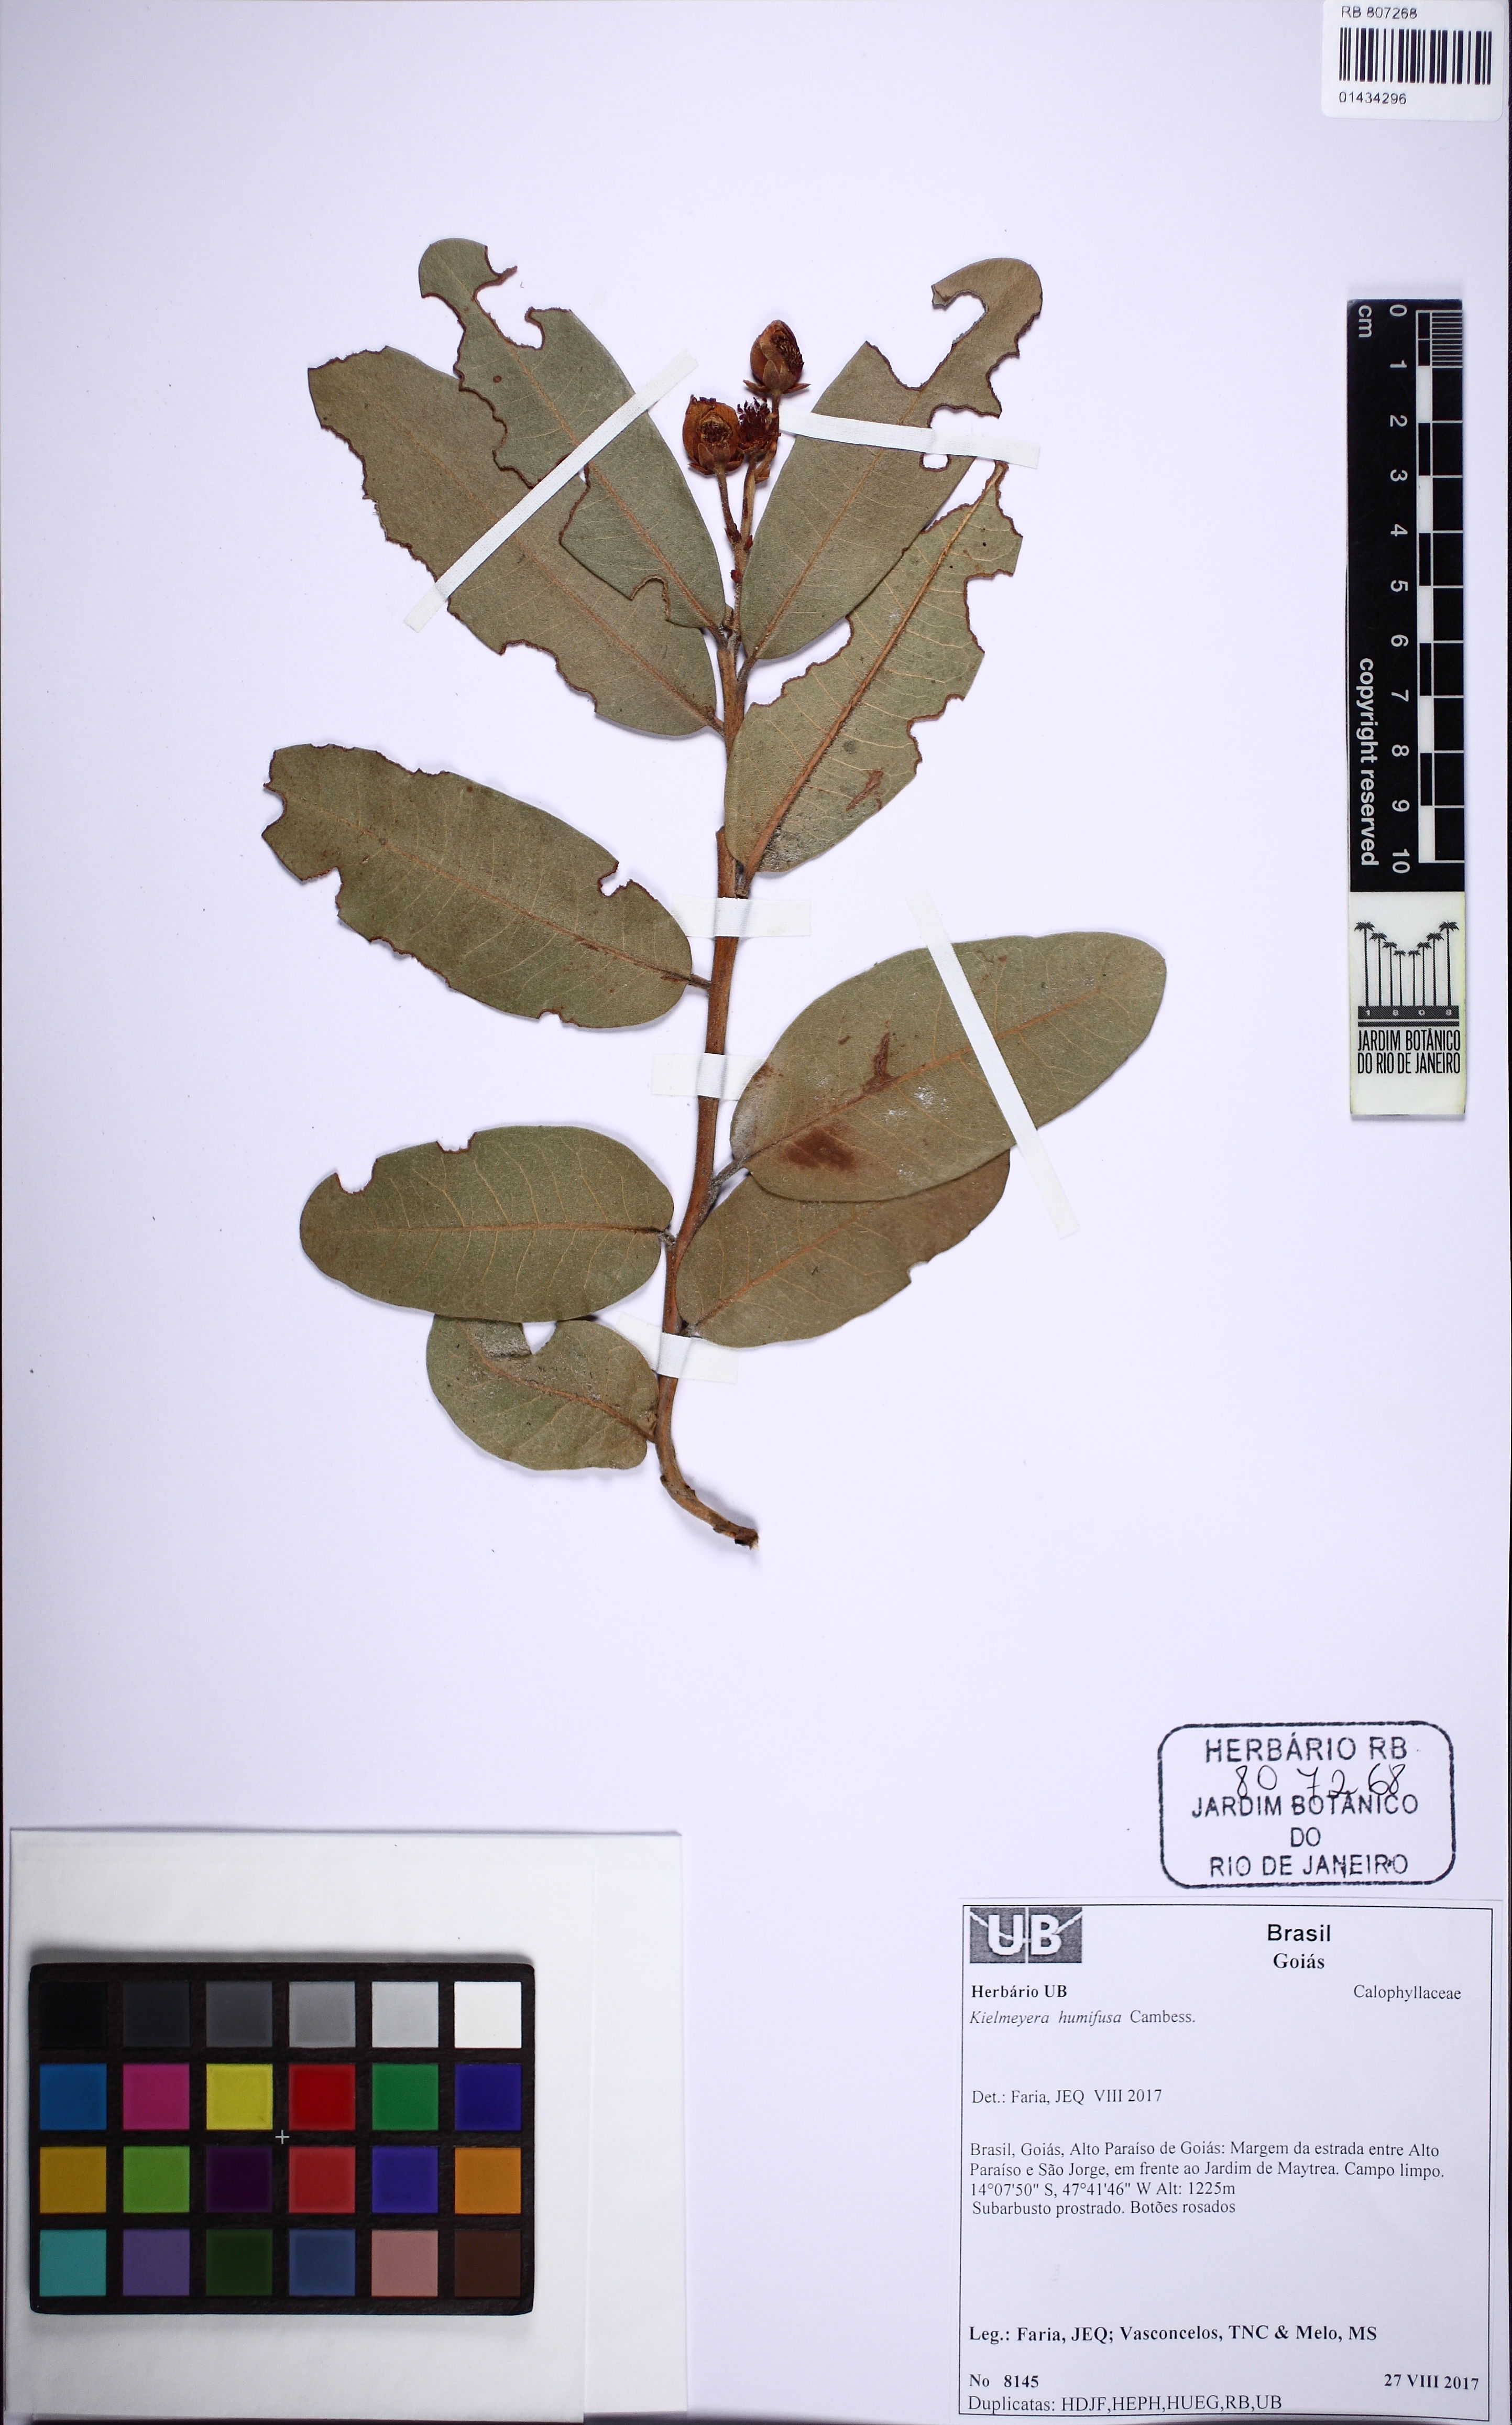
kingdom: Plantae
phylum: Tracheophyta
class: Magnoliopsida
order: Malpighiales
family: Calophyllaceae
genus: Kielmeyera
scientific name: Kielmeyera humifusa
